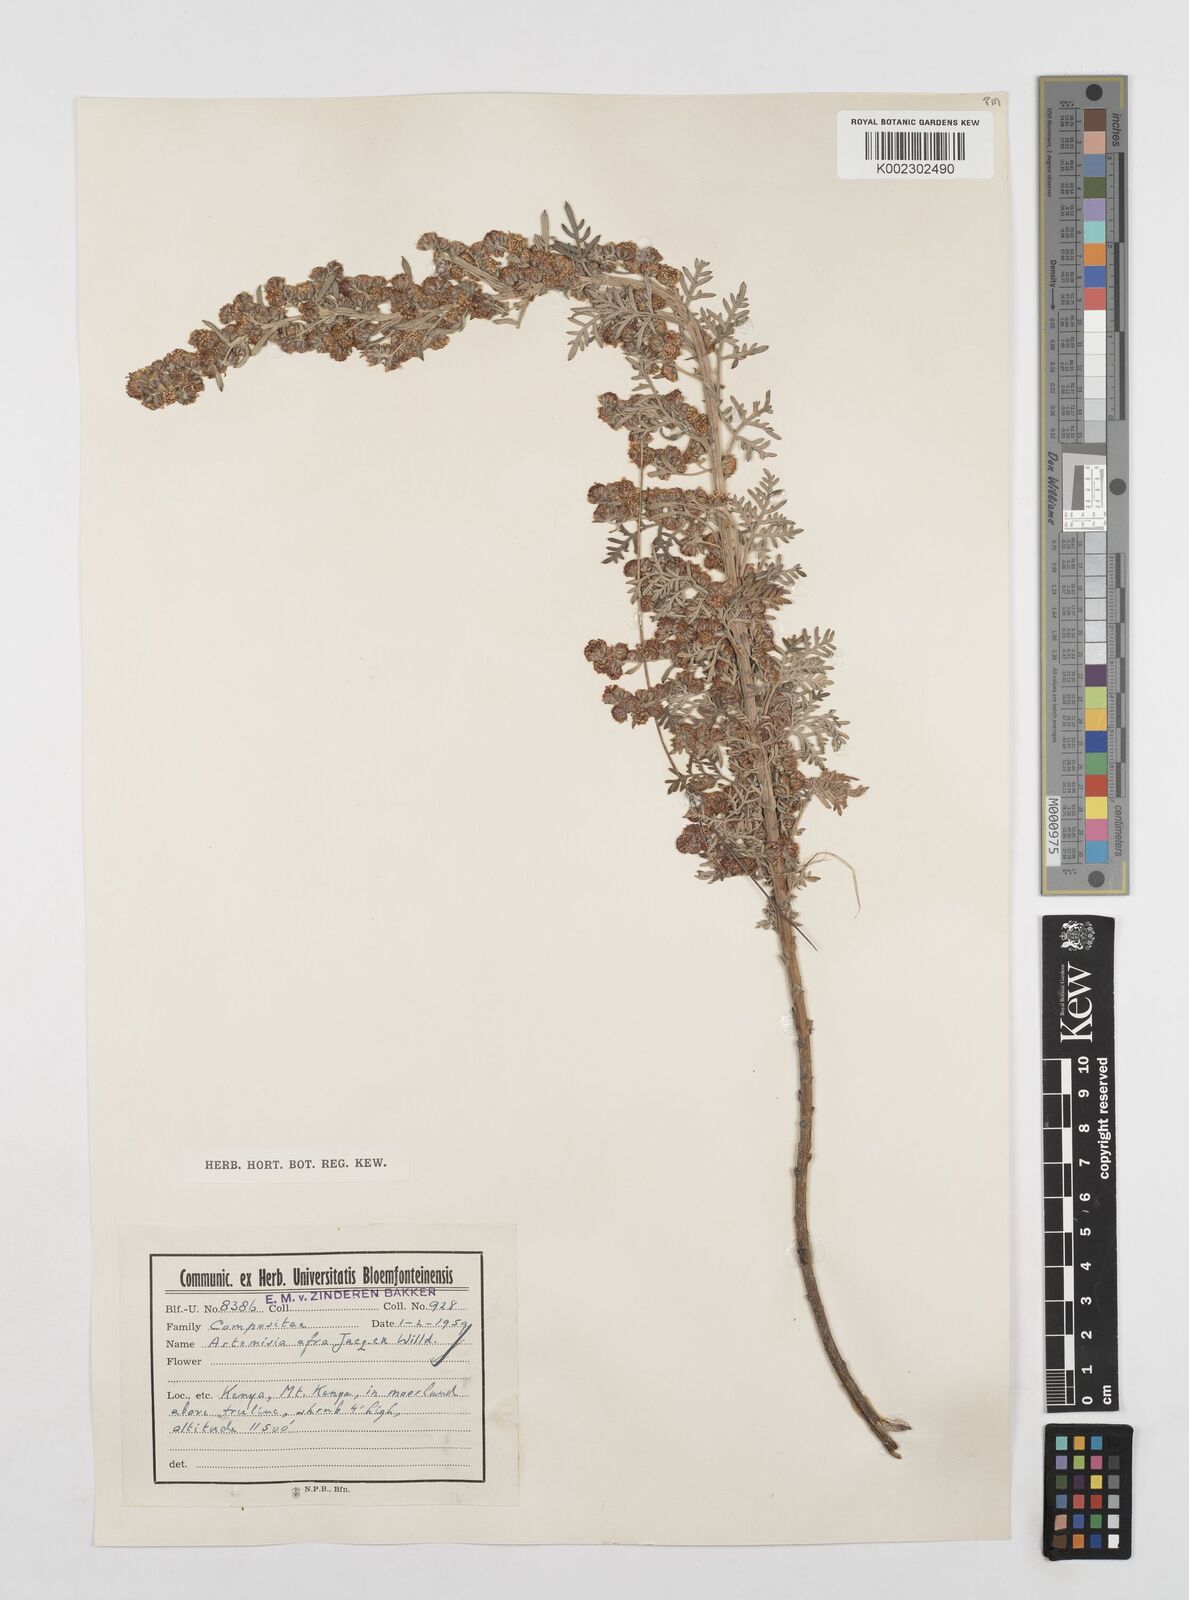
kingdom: Plantae
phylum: Tracheophyta
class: Magnoliopsida
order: Asterales
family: Asteraceae
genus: Artemisia
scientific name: Artemisia afra
